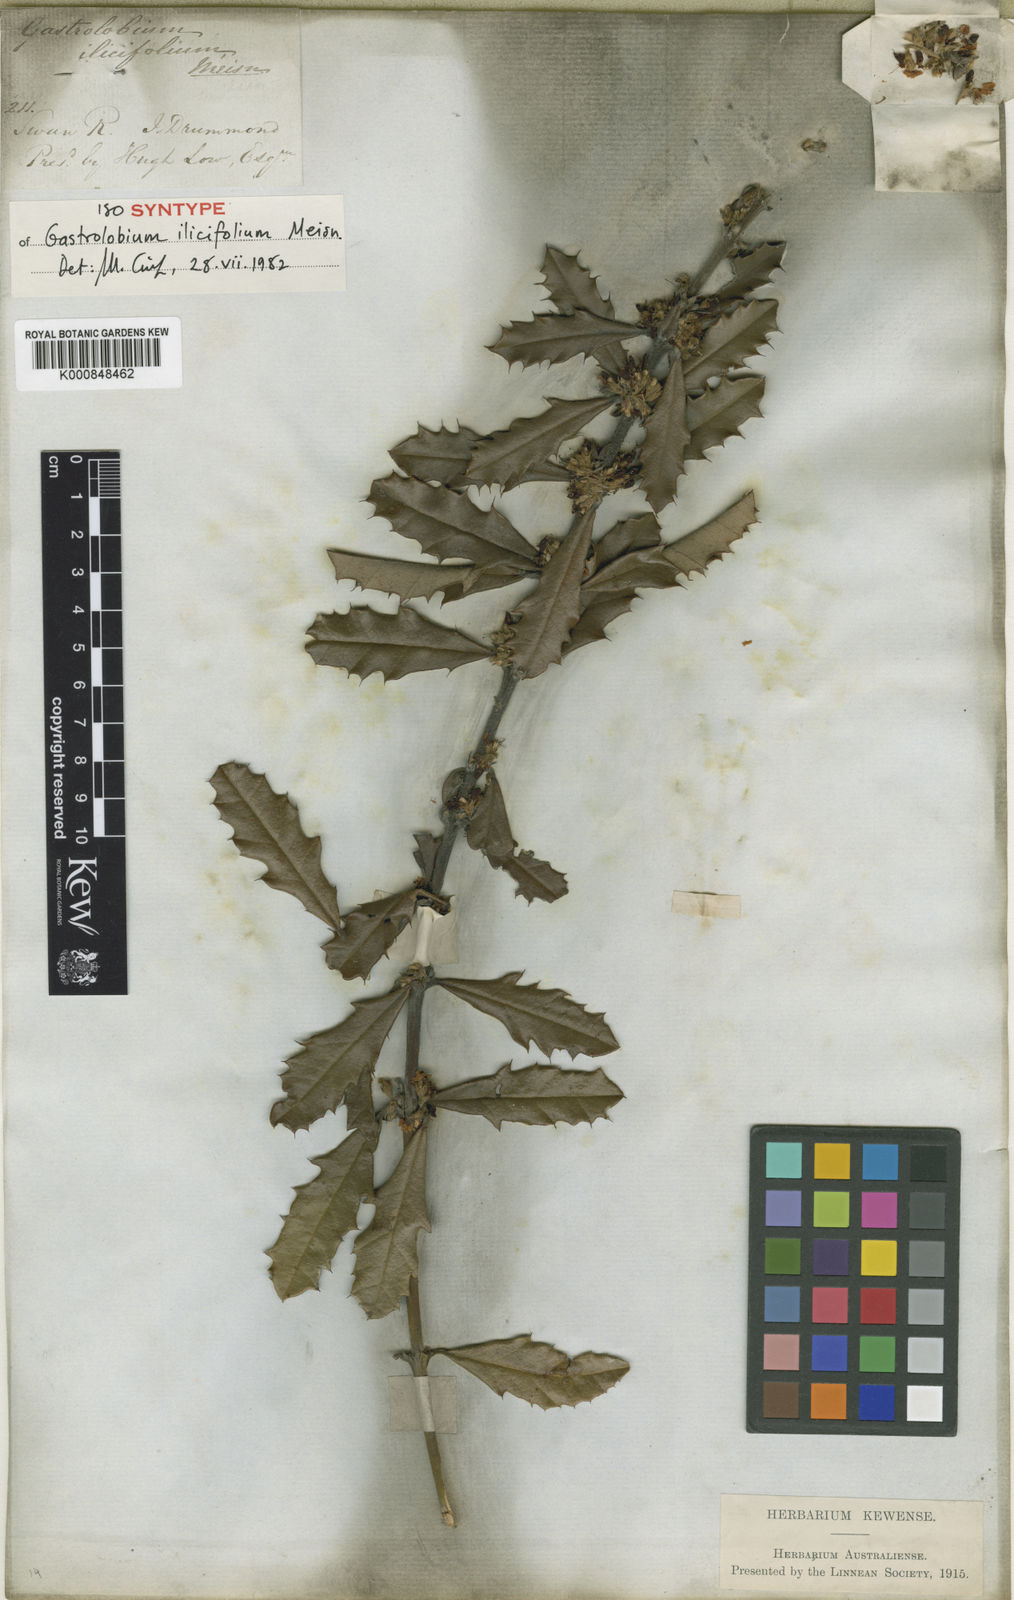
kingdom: Plantae
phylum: Tracheophyta
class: Magnoliopsida
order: Fabales
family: Fabaceae
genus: Gastrolobium
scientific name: Gastrolobium ilicifolium
